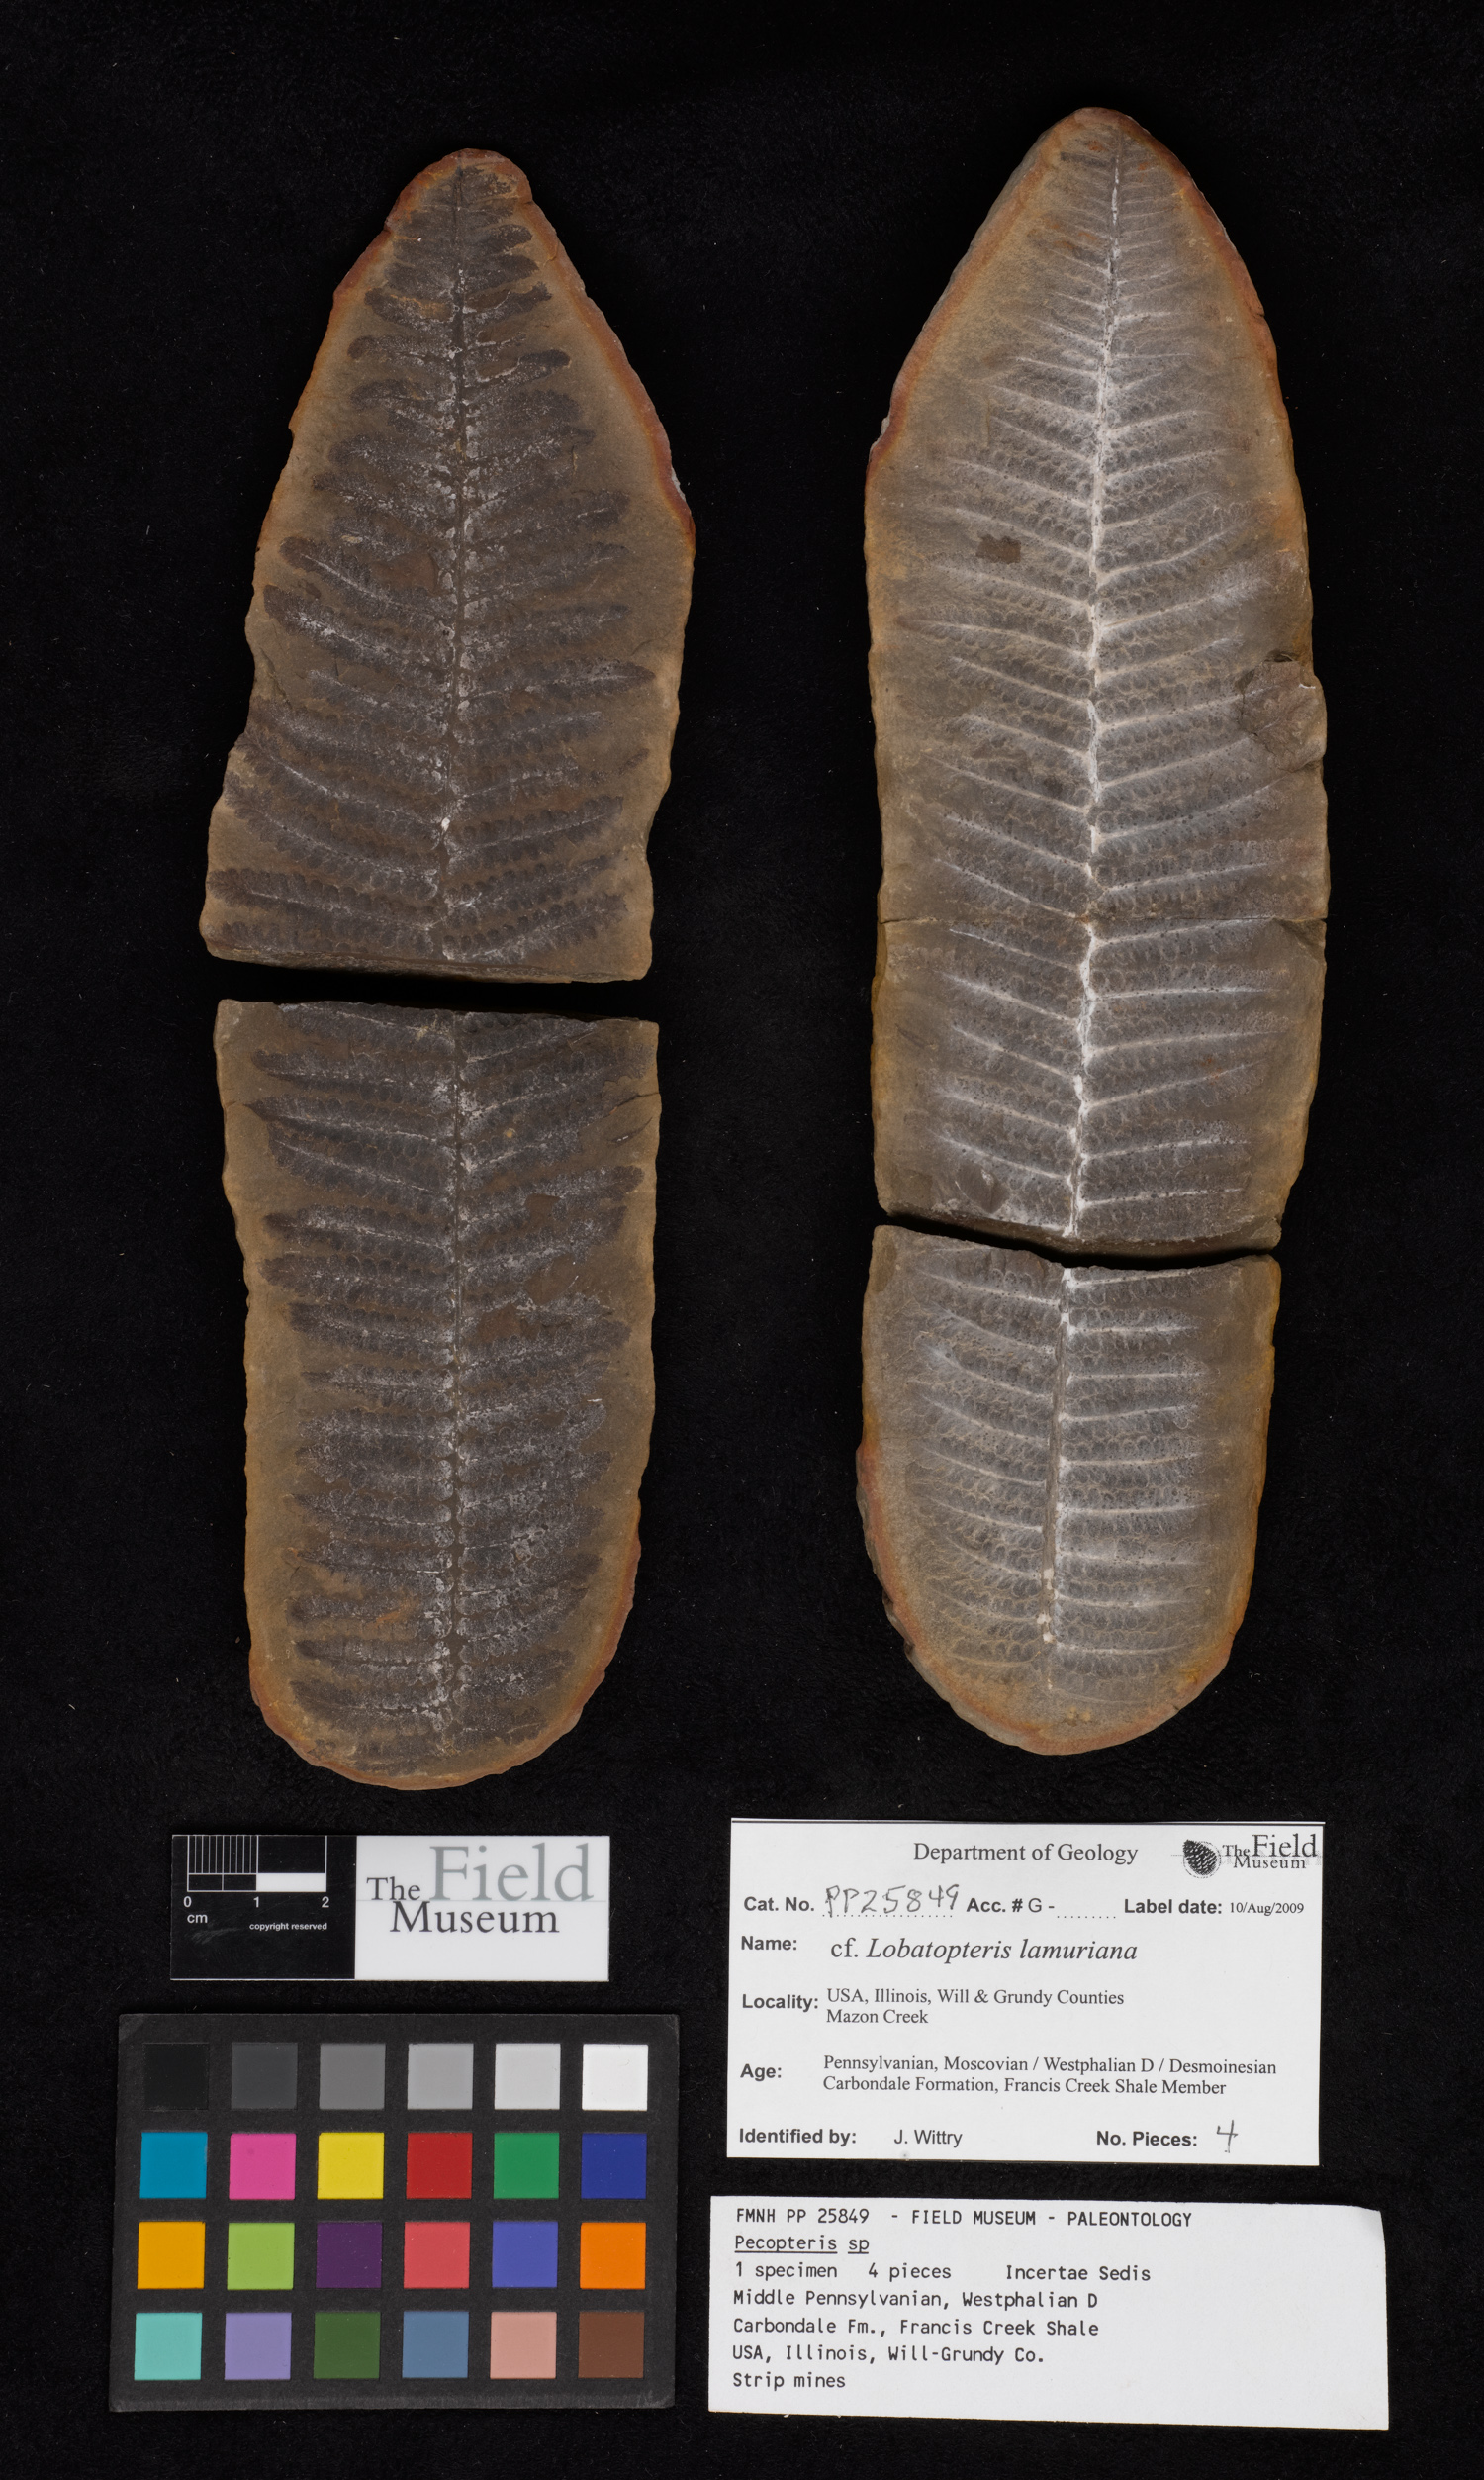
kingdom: Plantae
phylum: Tracheophyta
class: Polypodiopsida
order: Marattiales
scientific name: Marattiales
